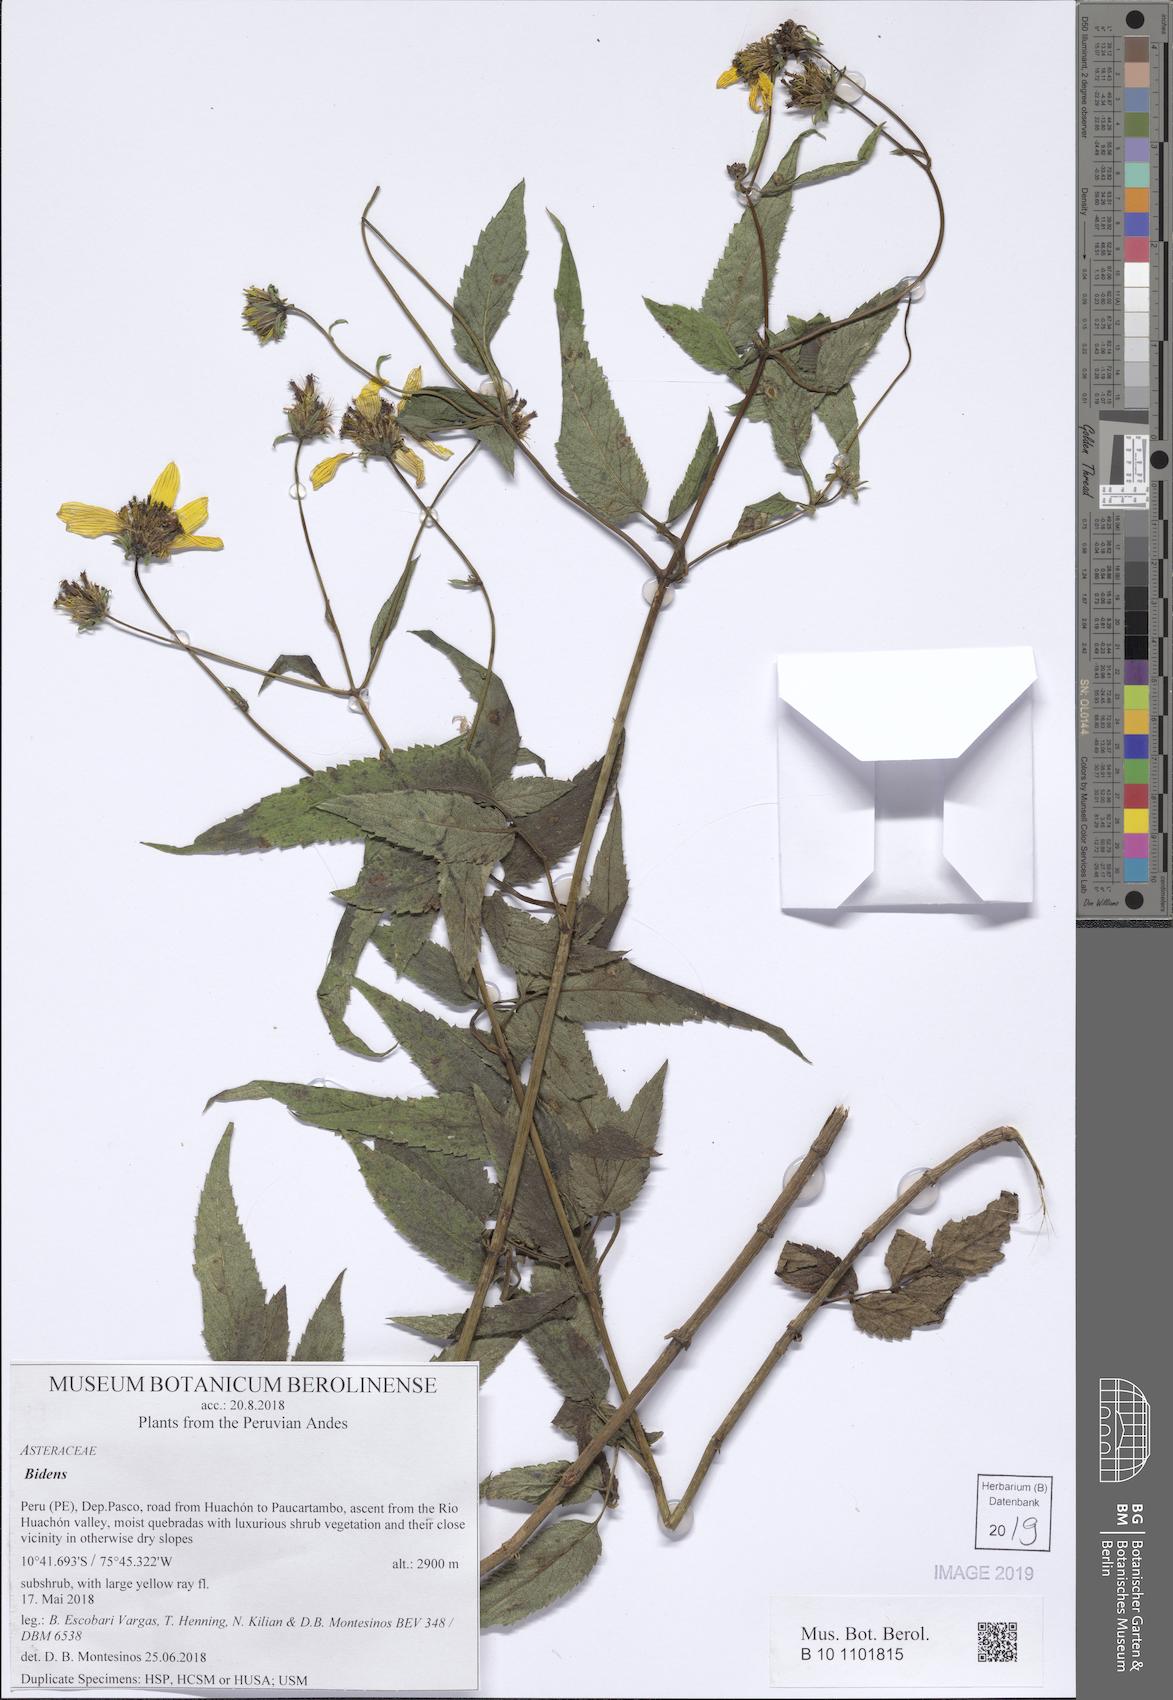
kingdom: Plantae
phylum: Tracheophyta
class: Magnoliopsida
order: Asterales
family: Asteraceae
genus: Bidens
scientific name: Bidens
